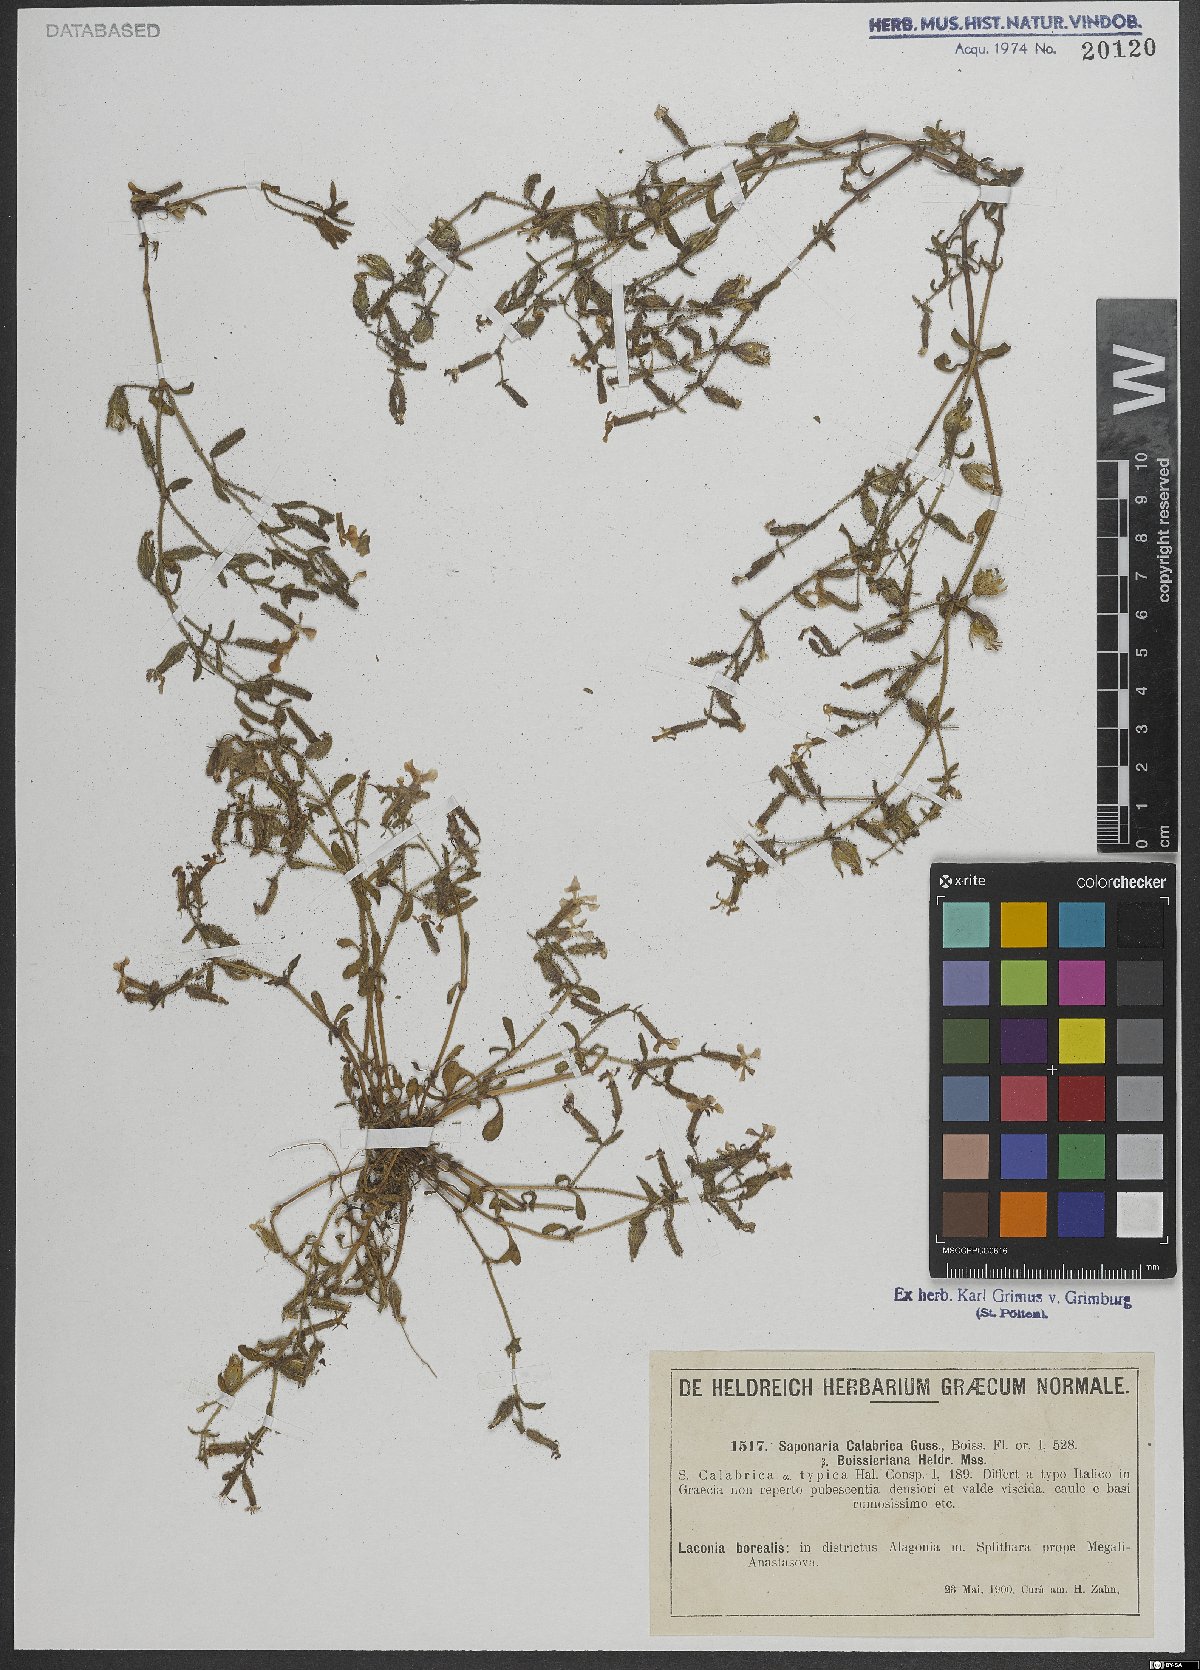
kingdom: Plantae
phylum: Tracheophyta
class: Magnoliopsida
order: Caryophyllales
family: Caryophyllaceae
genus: Saponaria
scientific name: Saponaria calabrica
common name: Adriatic soapwort
